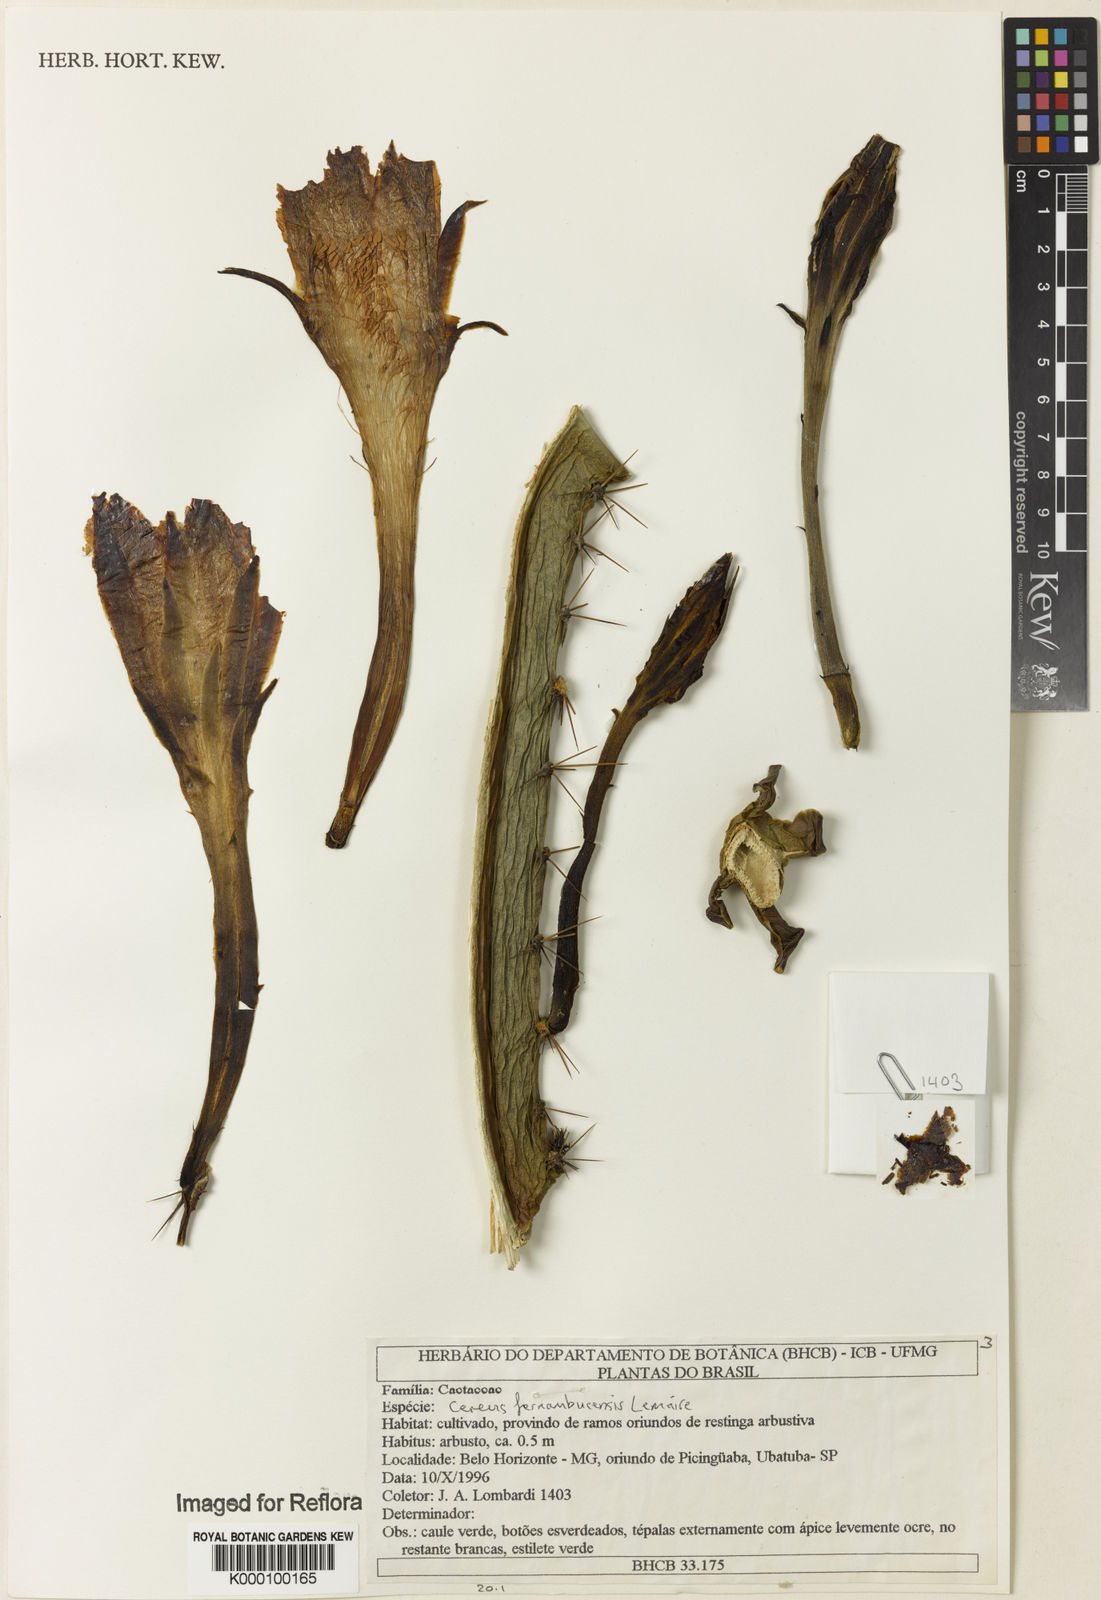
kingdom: Plantae
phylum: Tracheophyta
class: Magnoliopsida
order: Caryophyllales
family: Cactaceae
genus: Cereus
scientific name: Cereus
